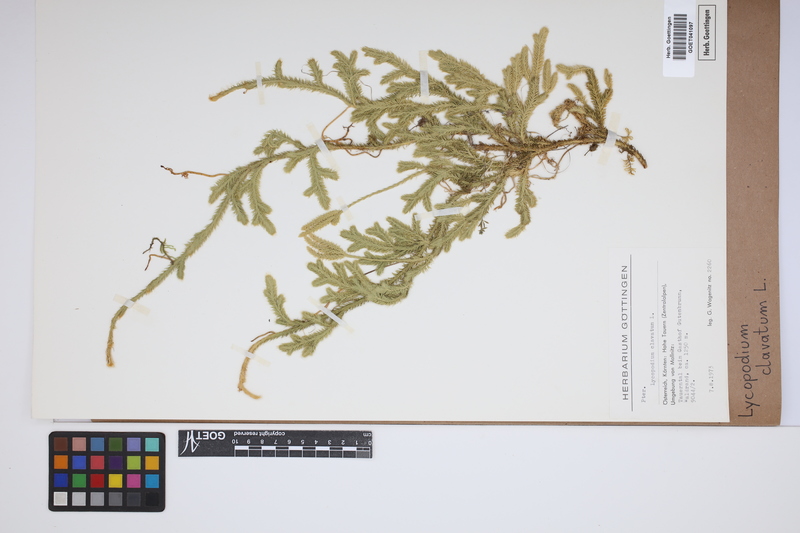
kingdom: Plantae
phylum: Tracheophyta
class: Lycopodiopsida
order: Lycopodiales
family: Lycopodiaceae
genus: Lycopodium
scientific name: Lycopodium clavatum
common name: Stag's-horn clubmoss
